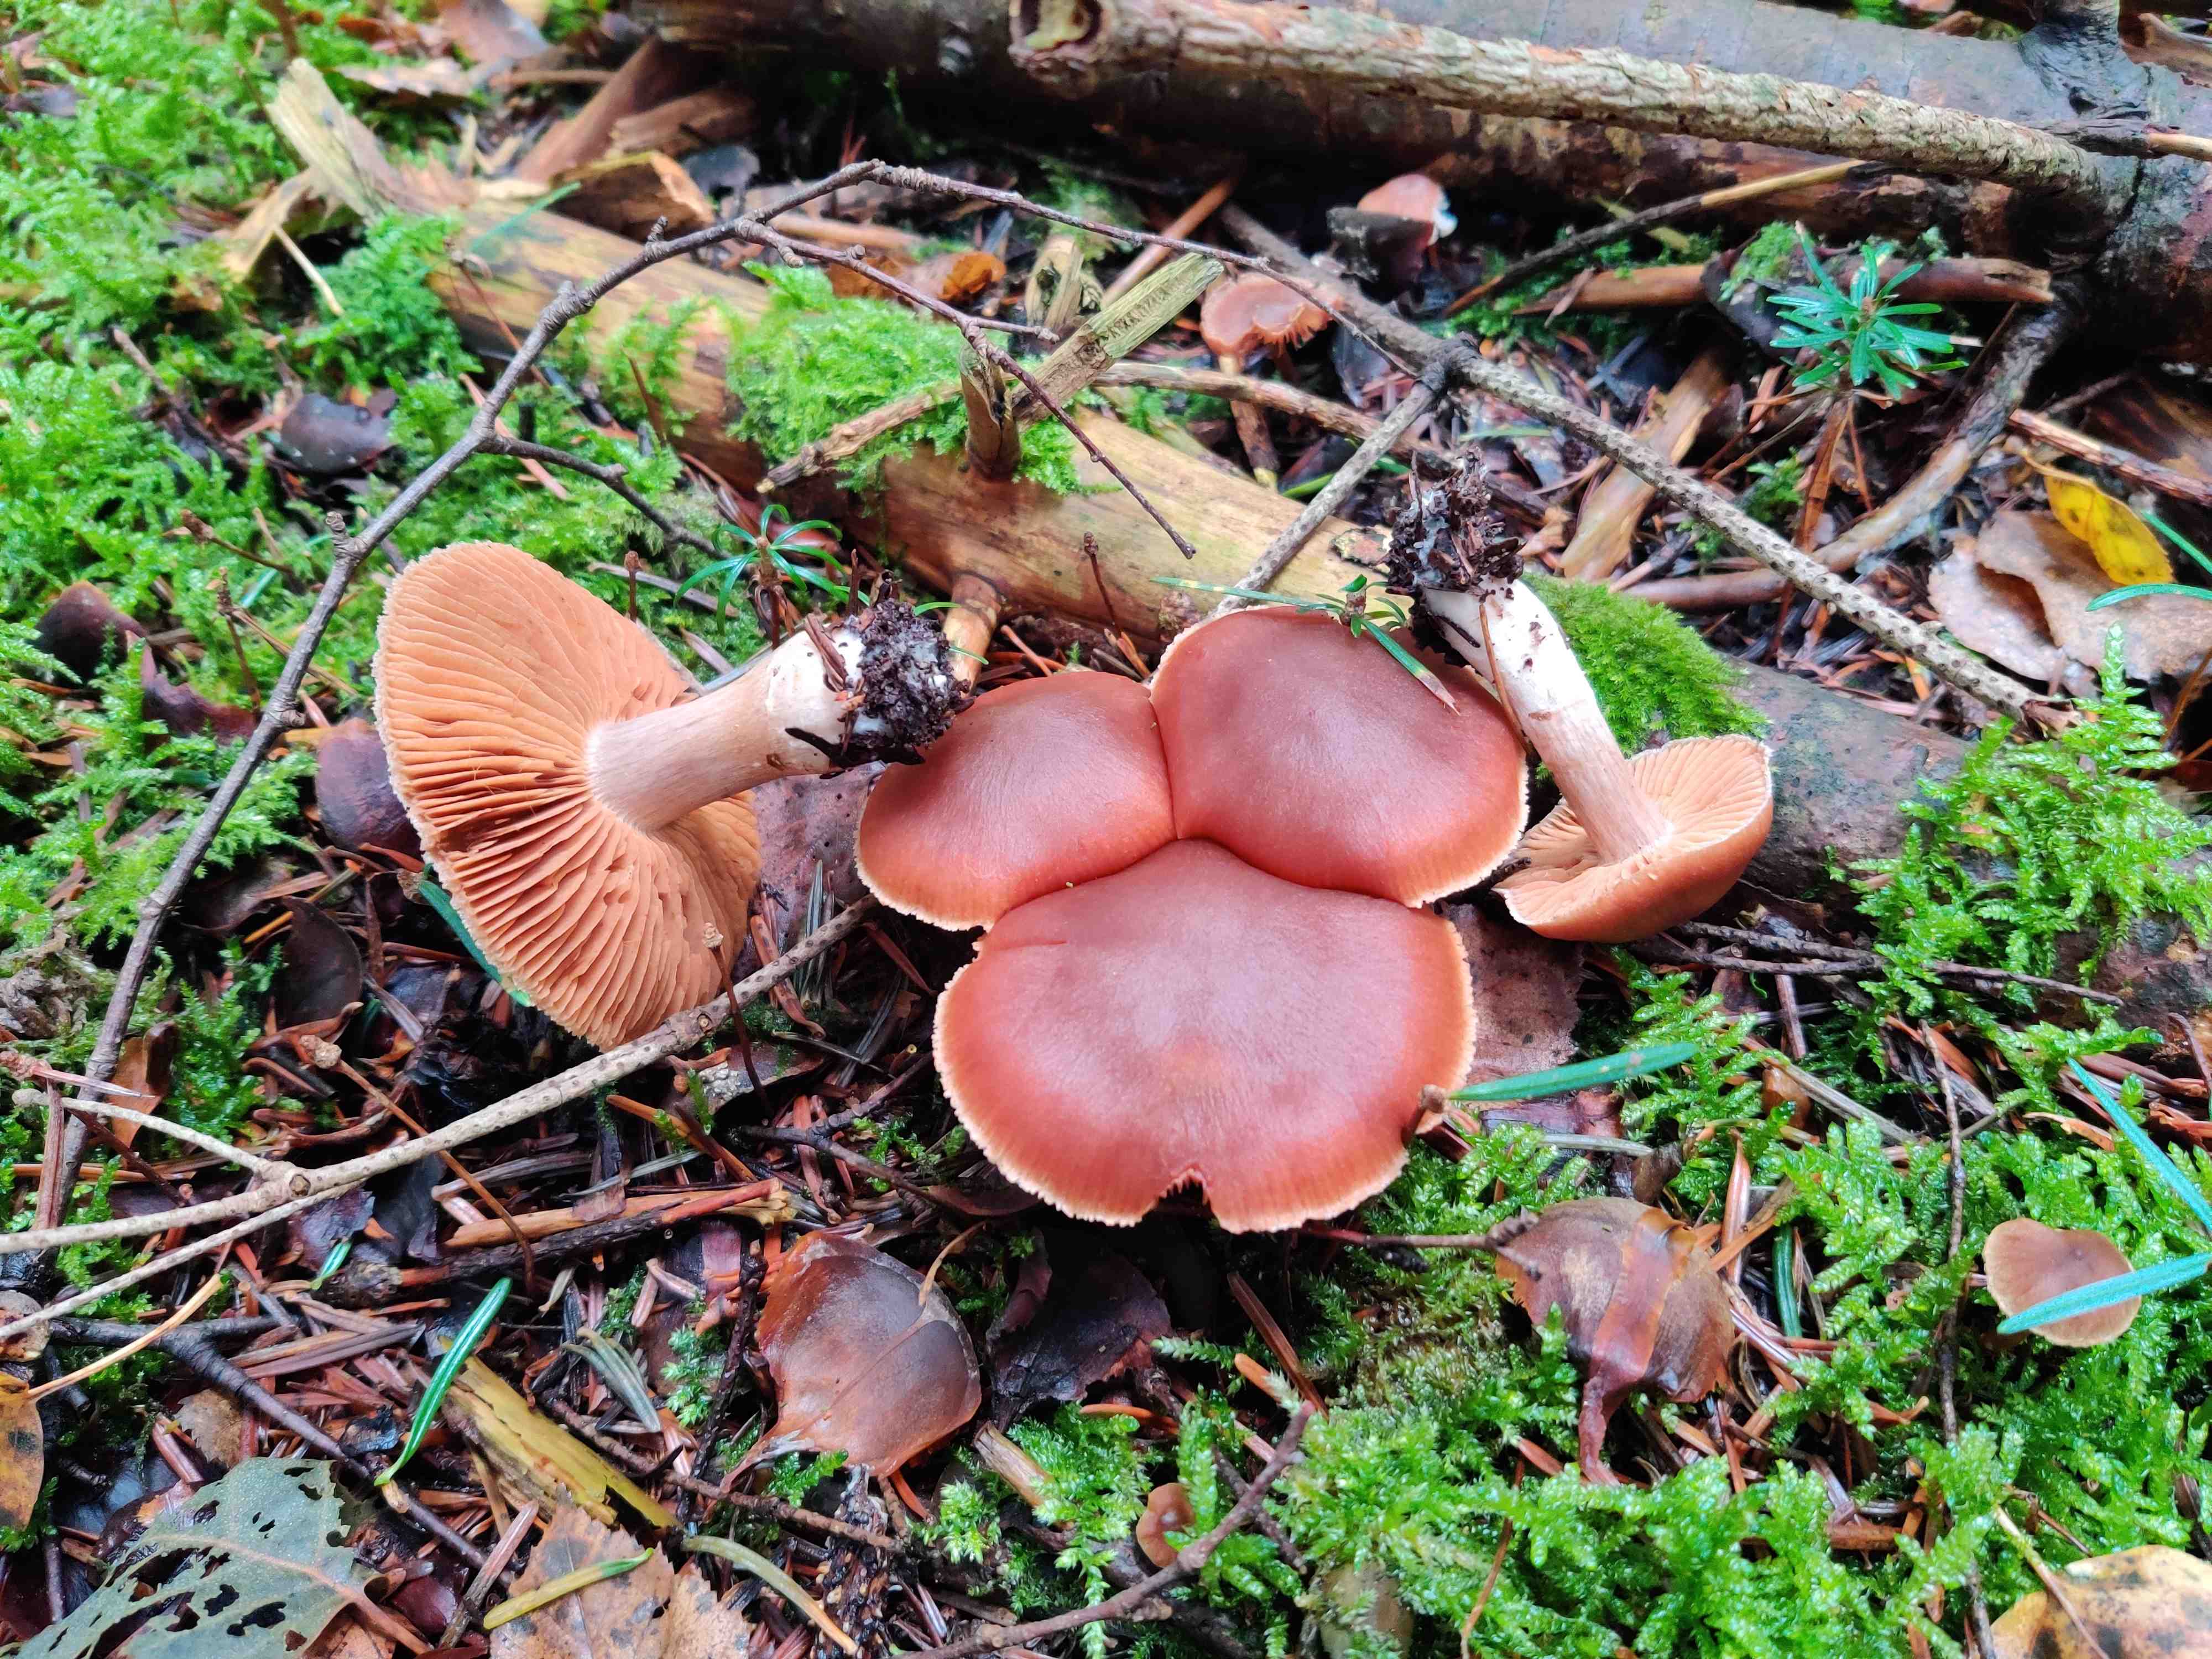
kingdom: Fungi
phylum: Basidiomycota
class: Agaricomycetes
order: Agaricales
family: Cortinariaceae
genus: Cortinarius
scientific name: Cortinarius
